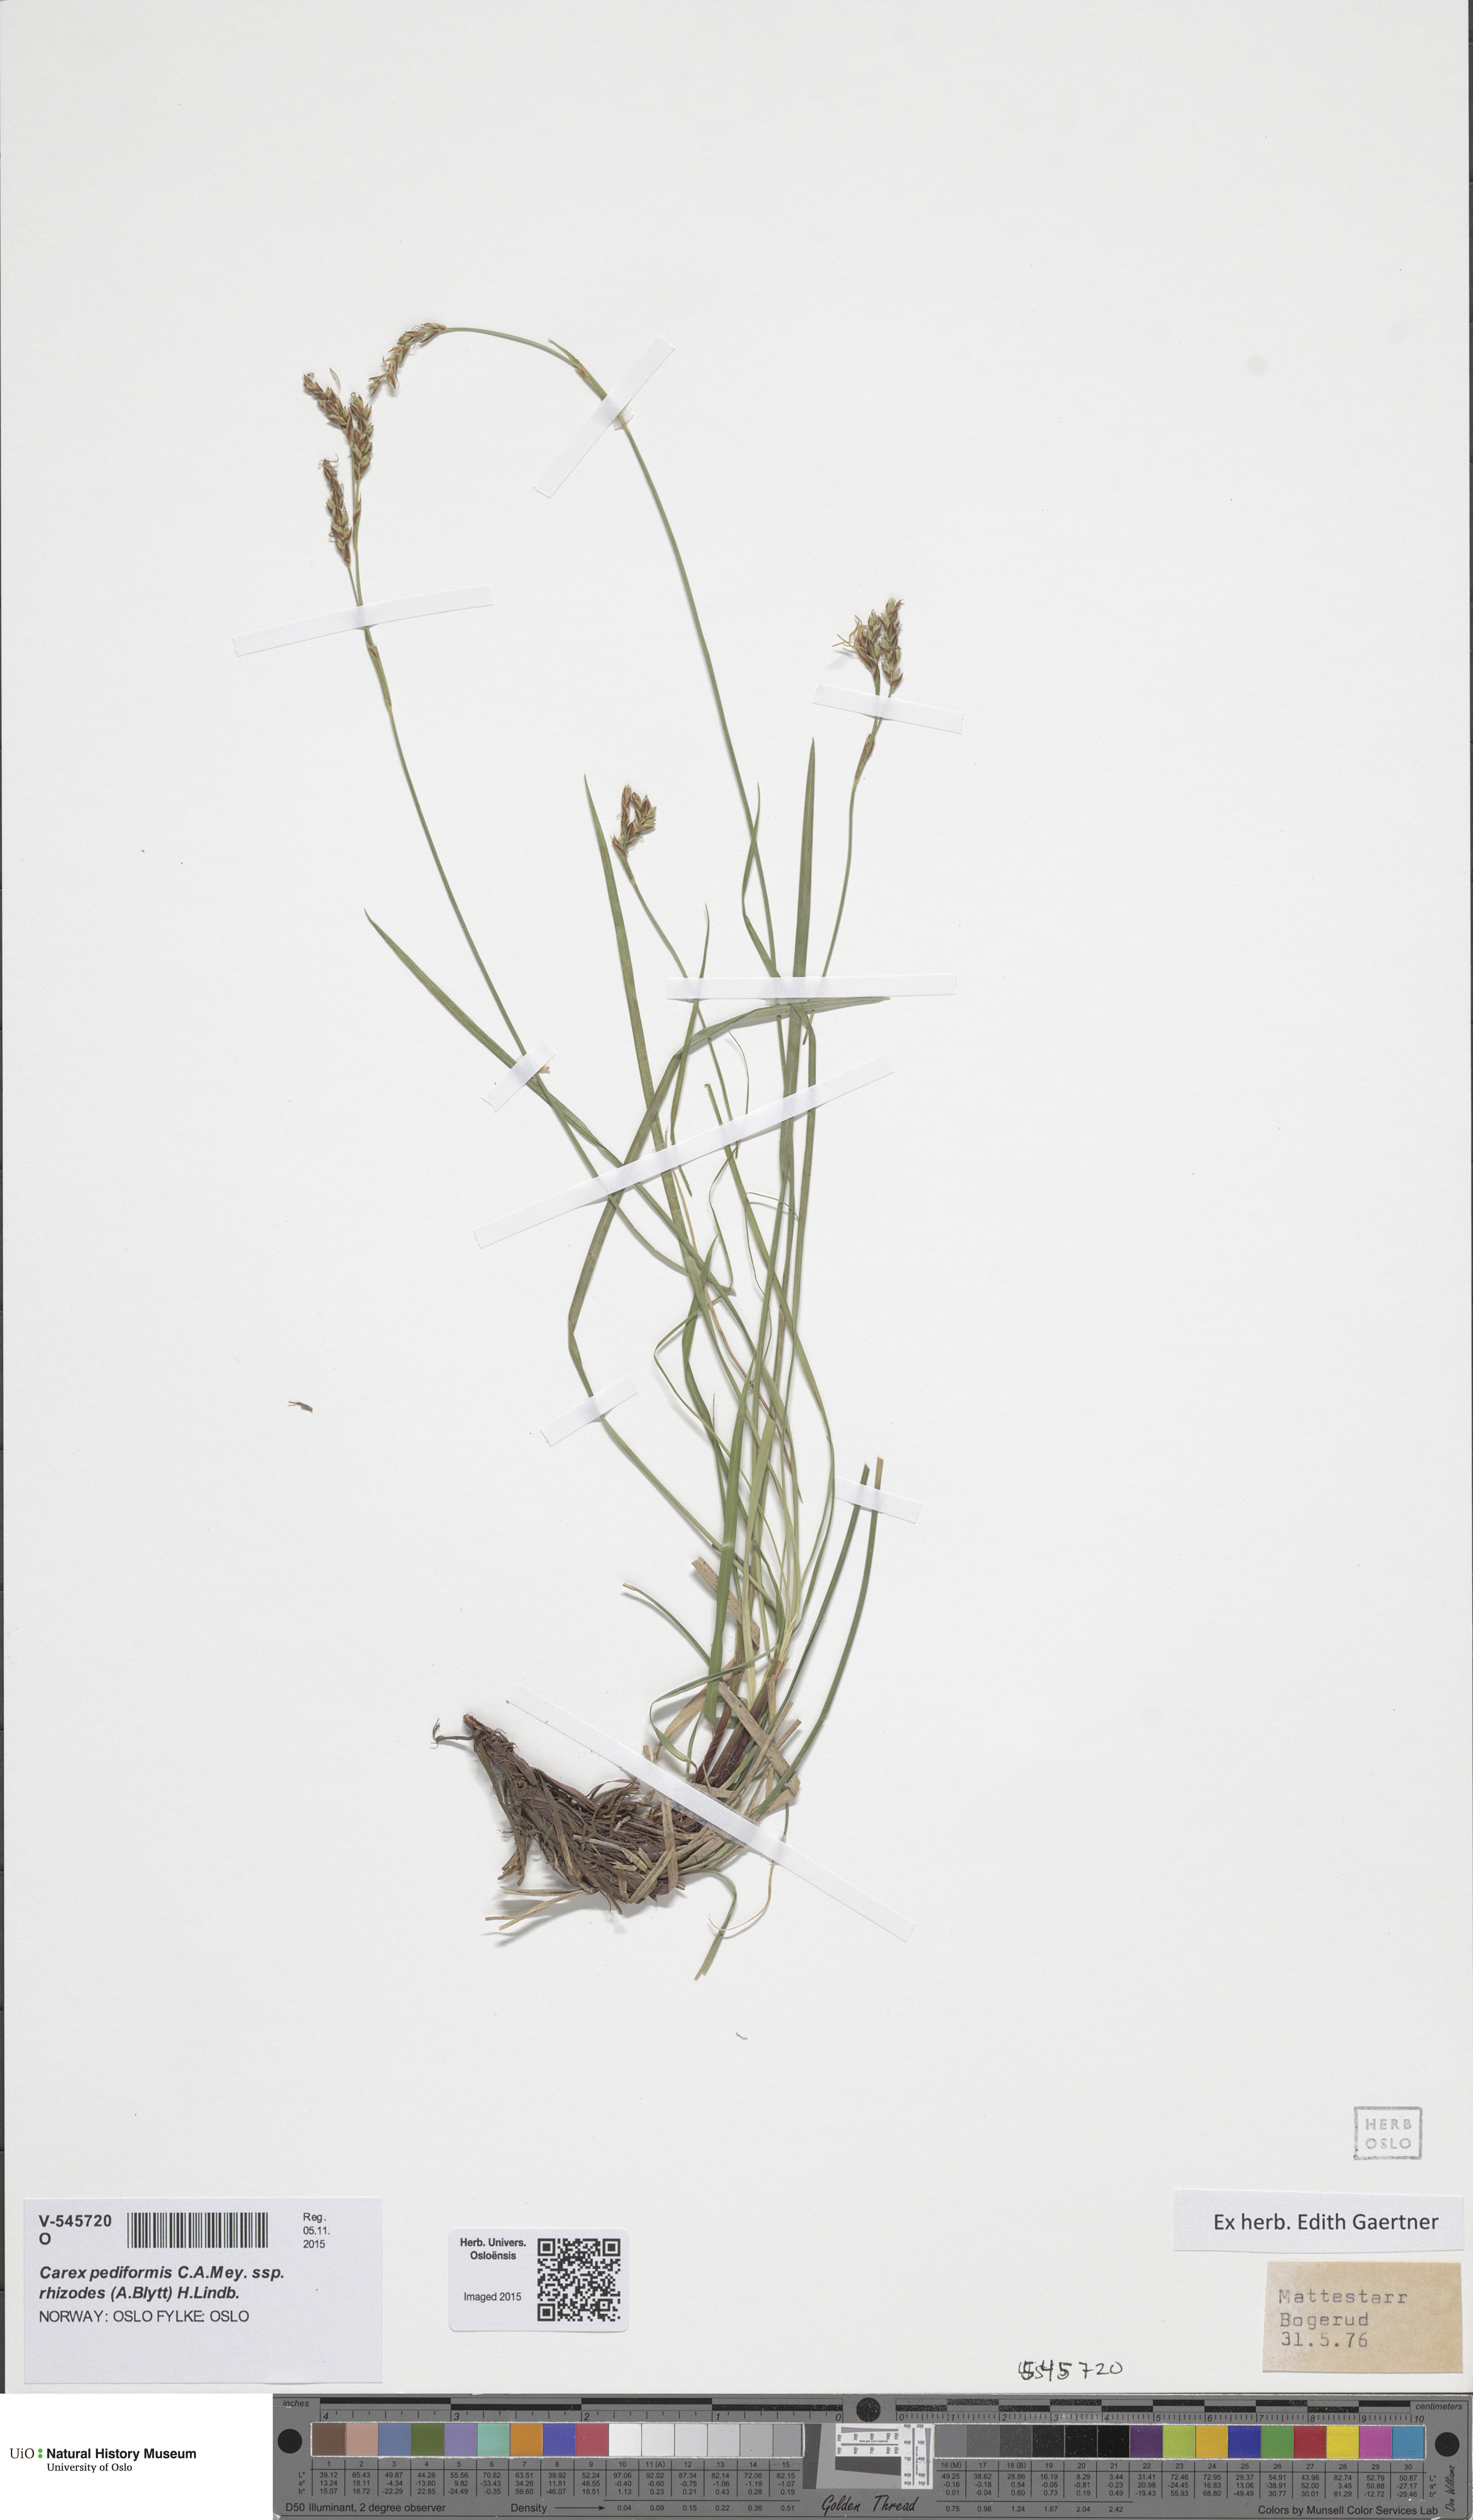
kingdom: Plantae
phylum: Tracheophyta
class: Liliopsida
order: Poales
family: Cyperaceae
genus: Carex
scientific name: Carex rhizina
